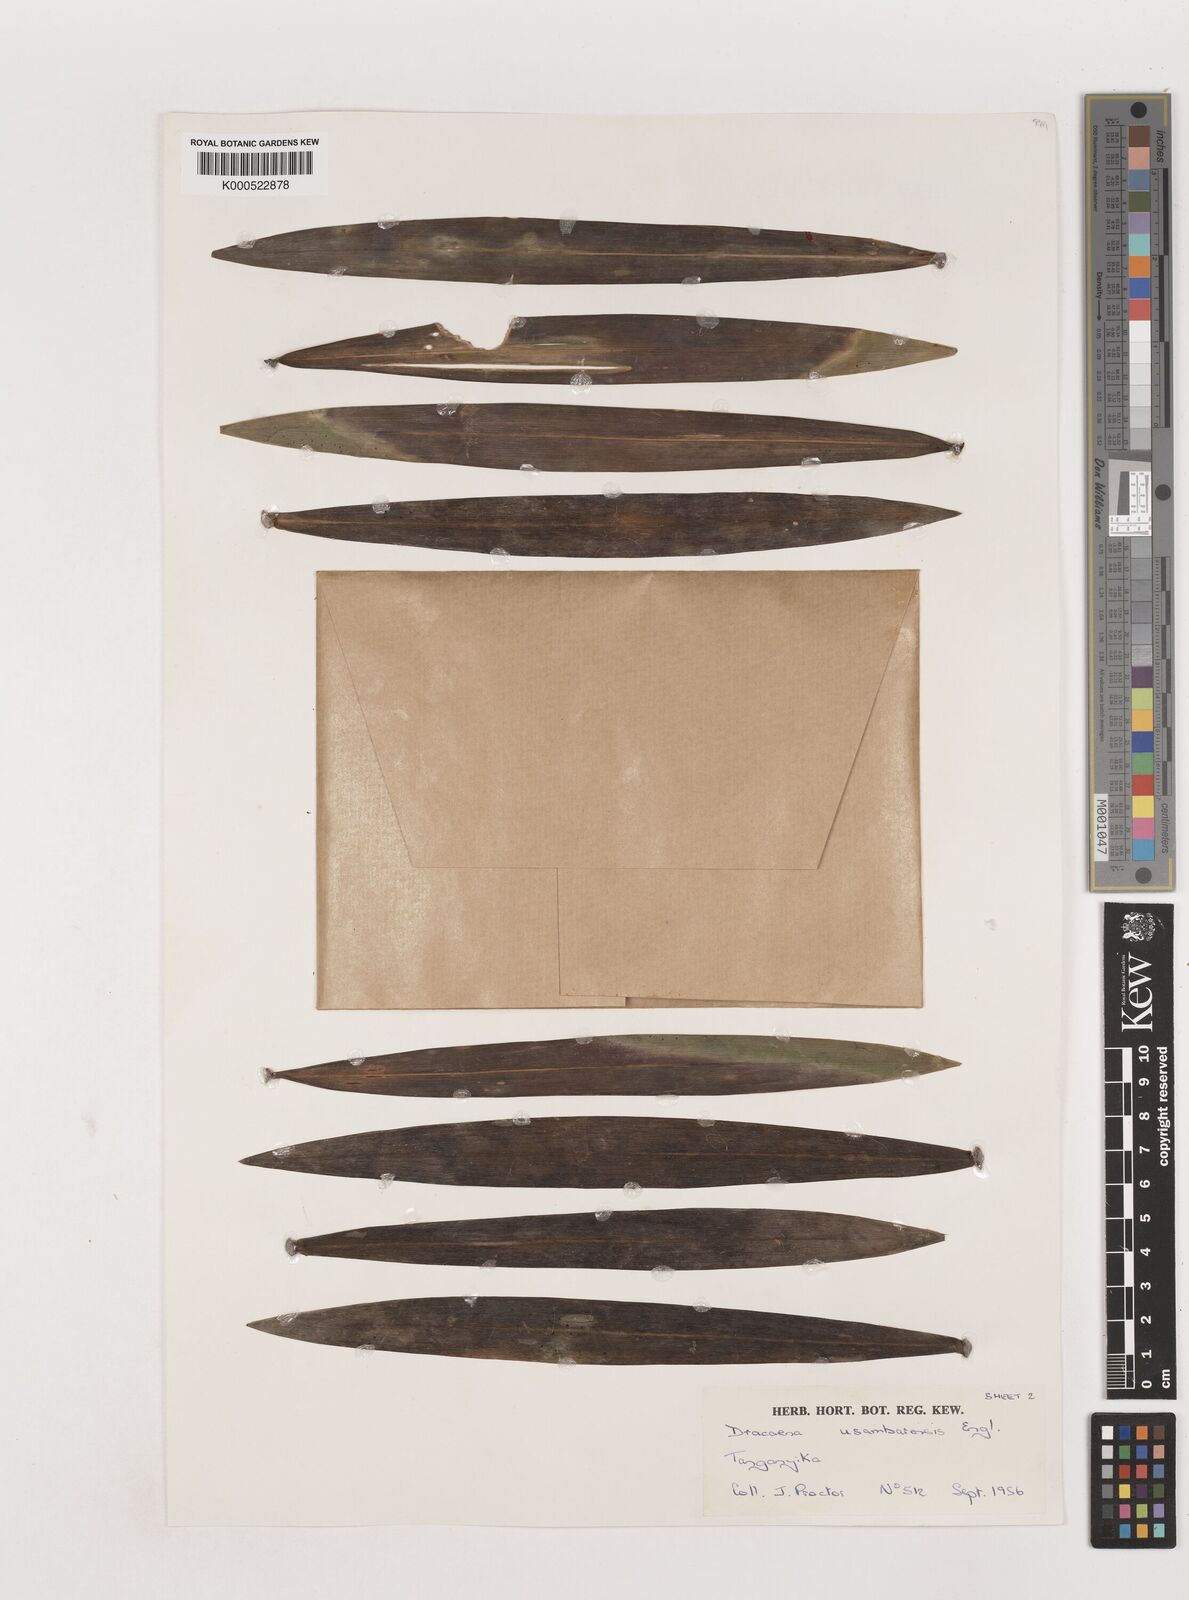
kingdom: Plantae
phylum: Tracheophyta
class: Liliopsida
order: Asparagales
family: Asparagaceae
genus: Dracaena
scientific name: Dracaena usambarensis
